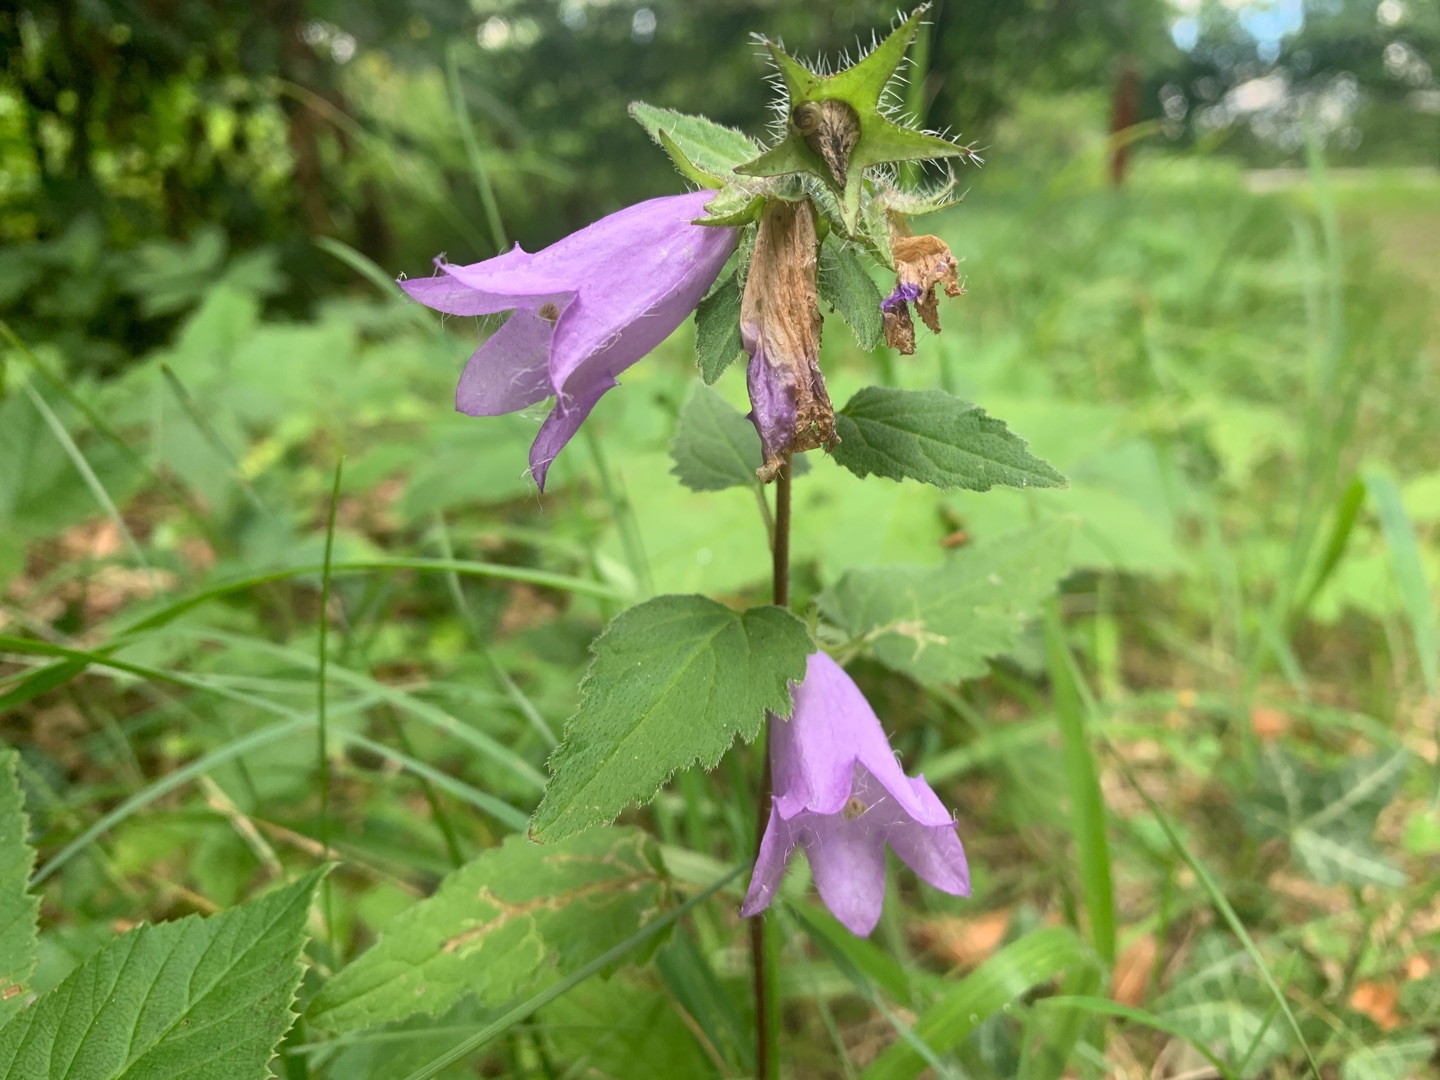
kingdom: Plantae
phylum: Tracheophyta
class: Magnoliopsida
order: Asterales
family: Campanulaceae
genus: Campanula
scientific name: Campanula trachelium
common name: Nælde-klokke
